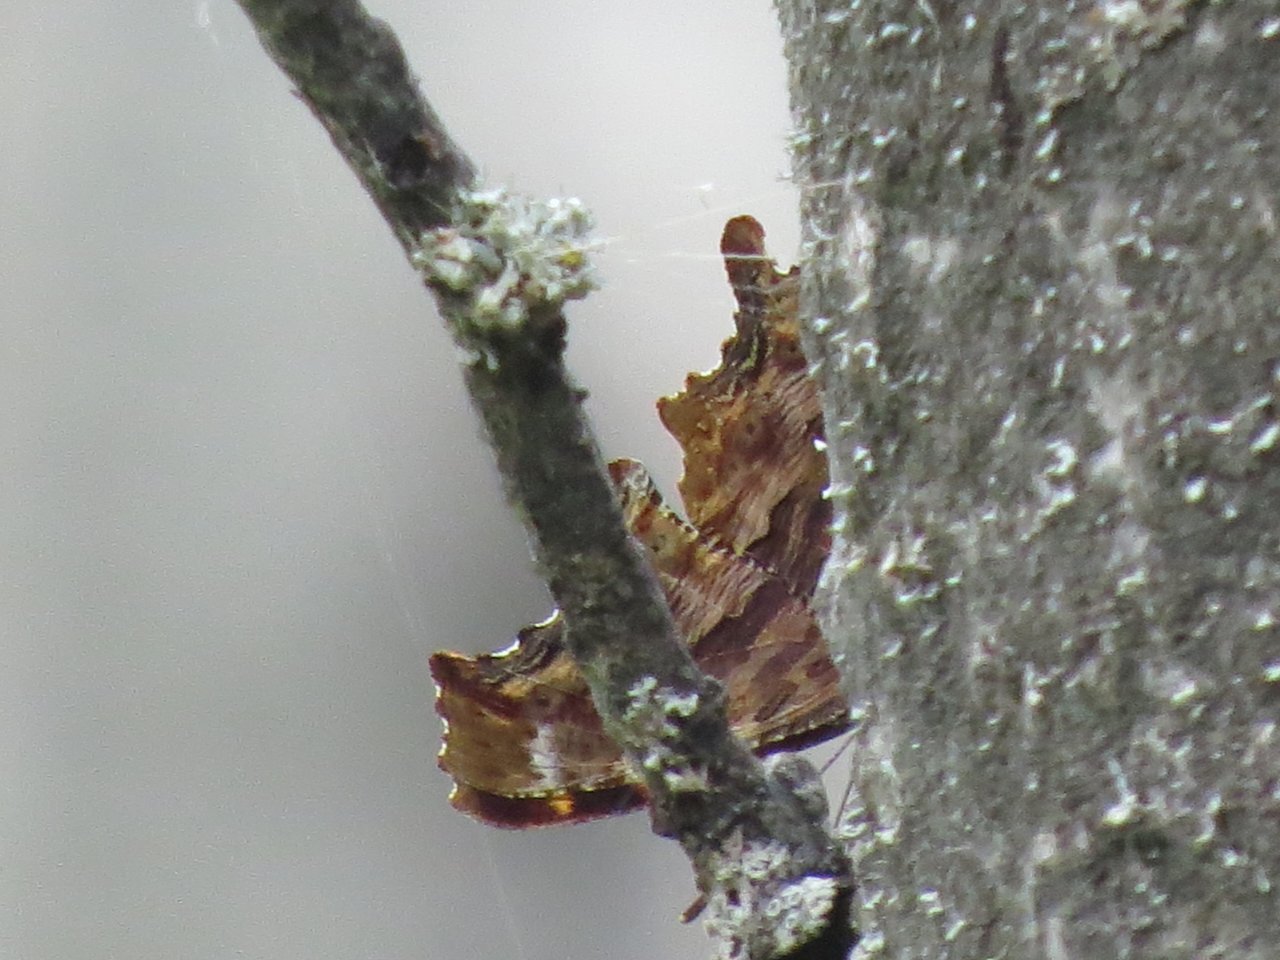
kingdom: Animalia
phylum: Arthropoda
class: Insecta
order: Lepidoptera
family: Nymphalidae
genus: Polygonia
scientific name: Polygonia comma
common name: Eastern Comma
